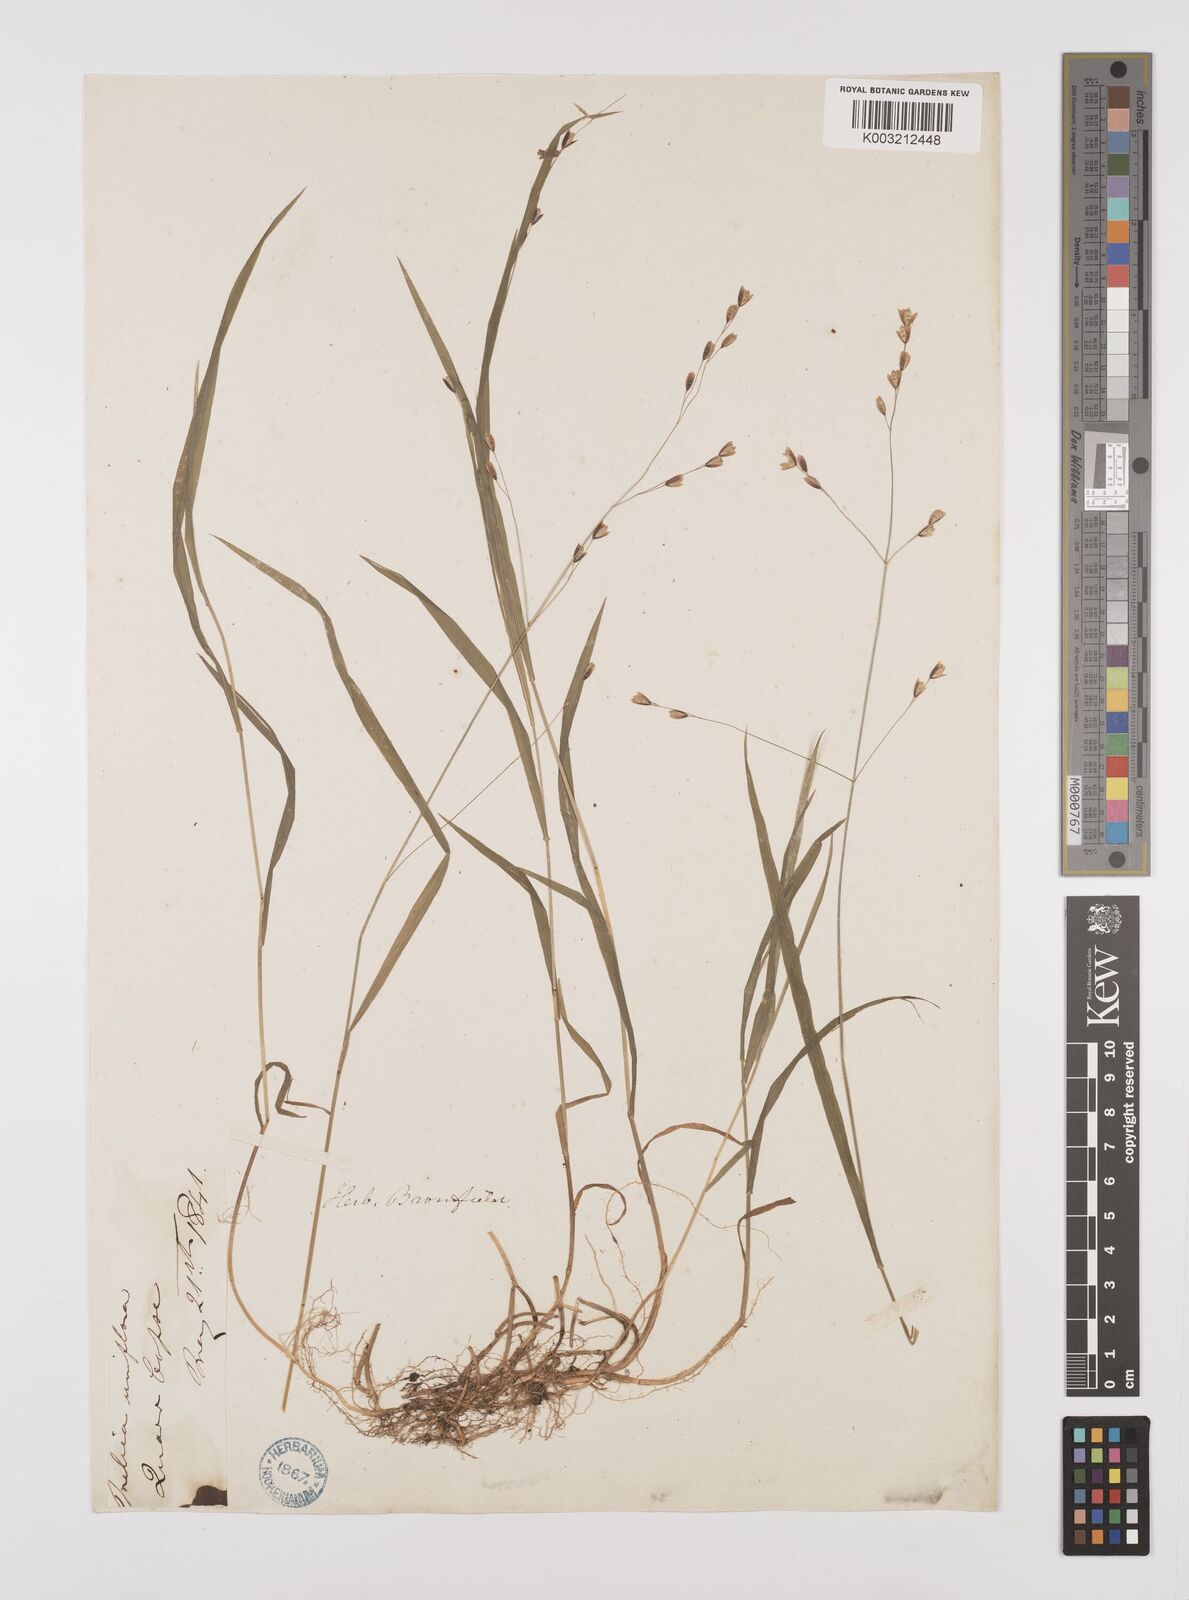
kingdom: Plantae
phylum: Tracheophyta
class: Liliopsida
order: Poales
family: Poaceae
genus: Melica
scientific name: Melica uniflora
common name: Wood melick
